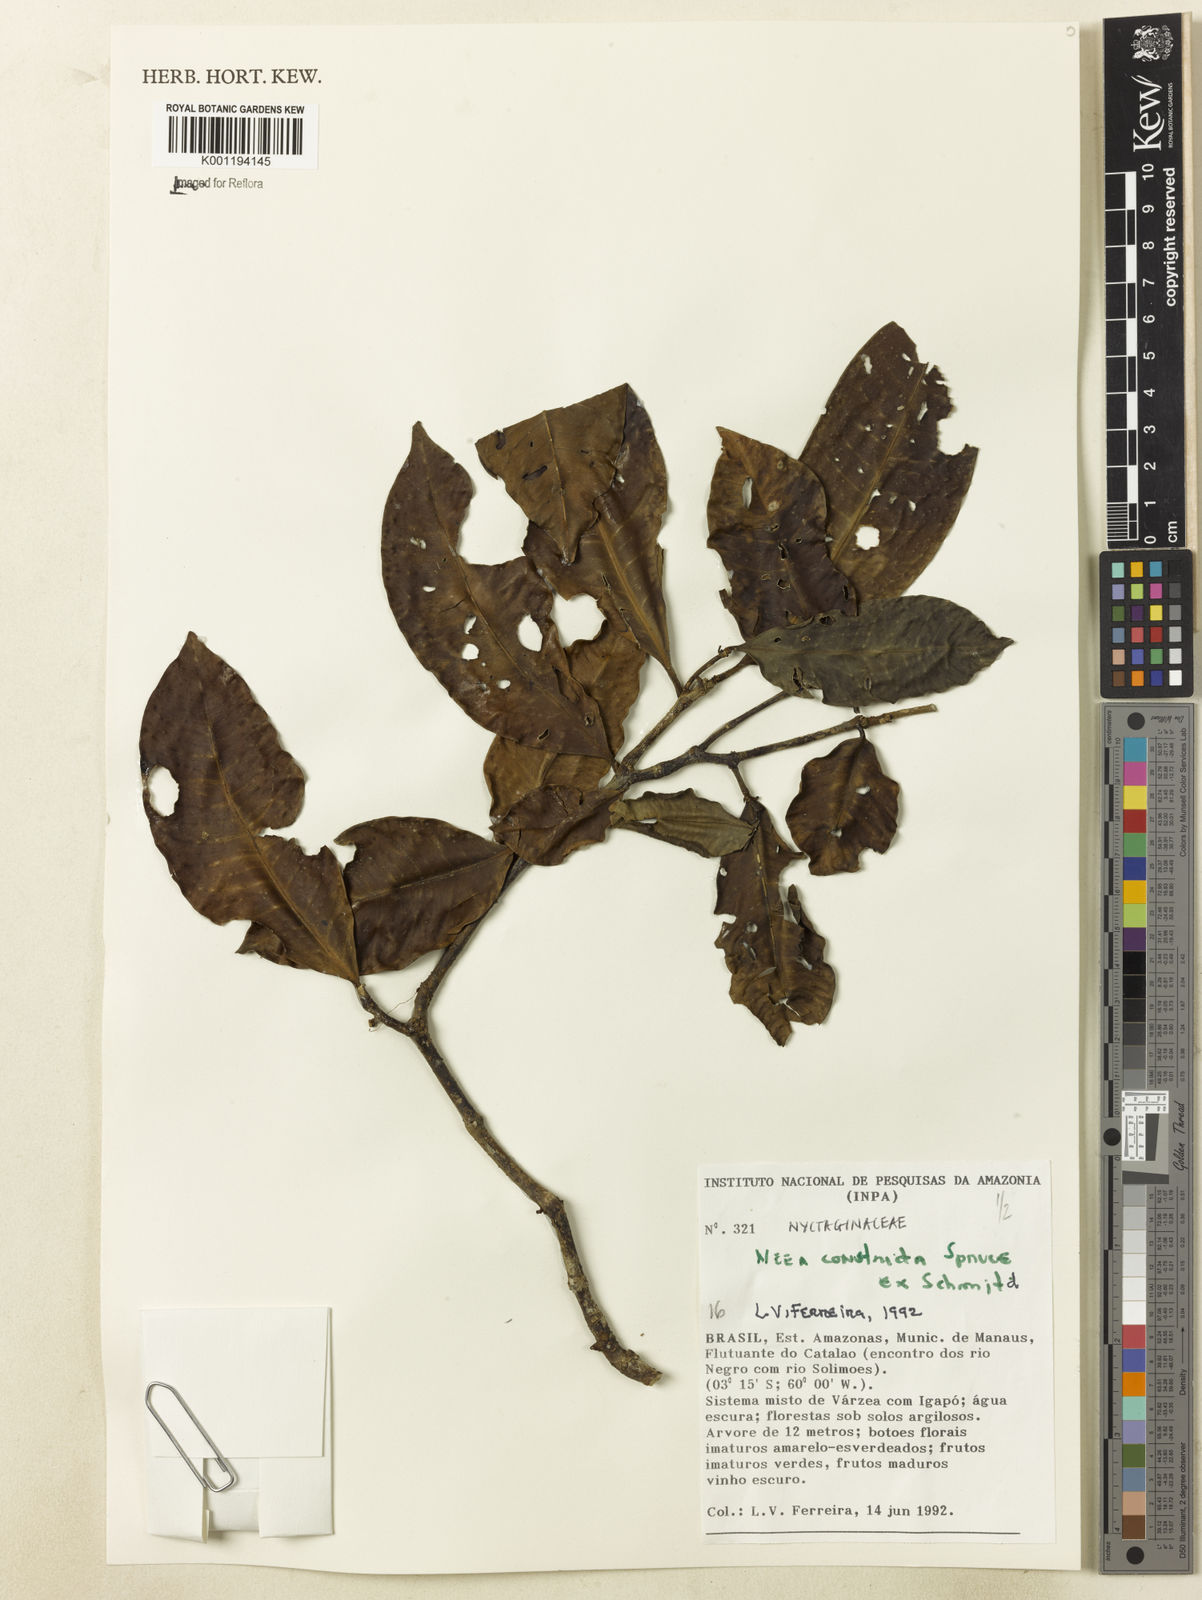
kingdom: Plantae
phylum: Tracheophyta
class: Magnoliopsida
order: Caryophyllales
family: Nyctaginaceae
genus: Neea
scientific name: Neea constricta
